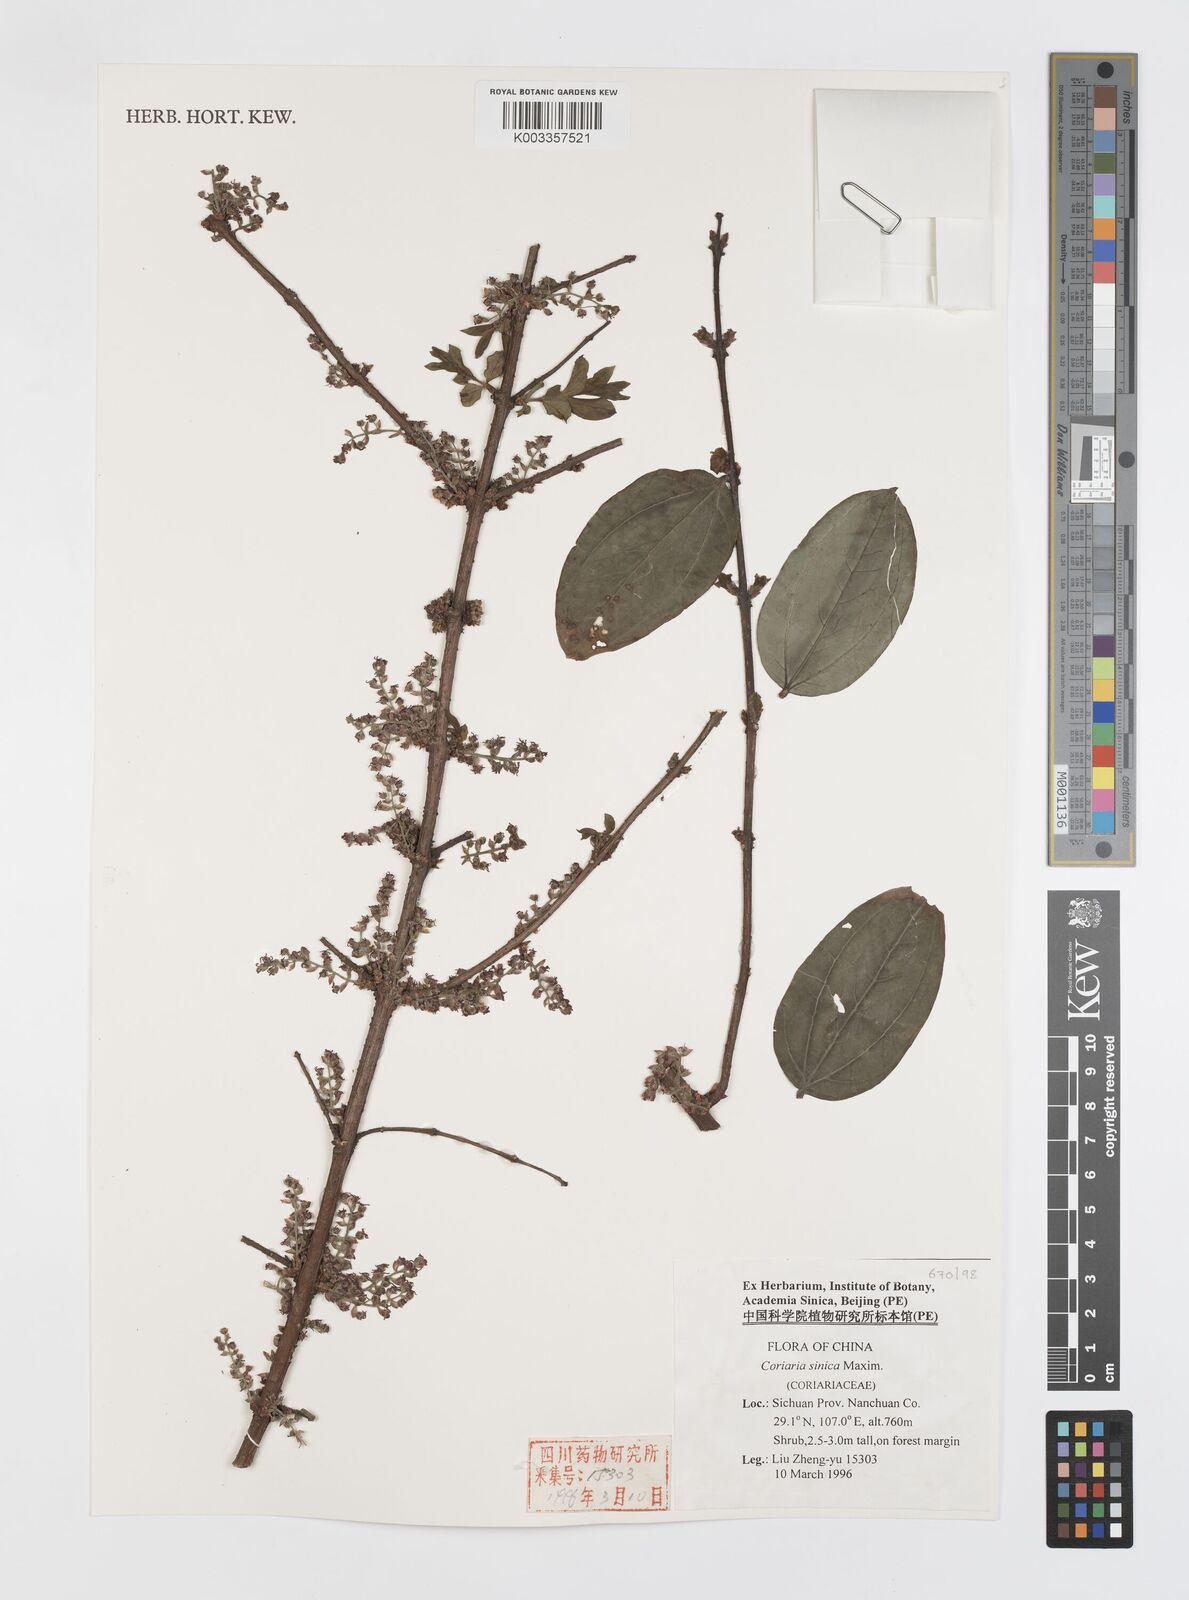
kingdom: Plantae
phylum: Tracheophyta
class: Magnoliopsida
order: Cucurbitales
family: Coriariaceae
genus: Coriaria
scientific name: Coriaria napalensis
